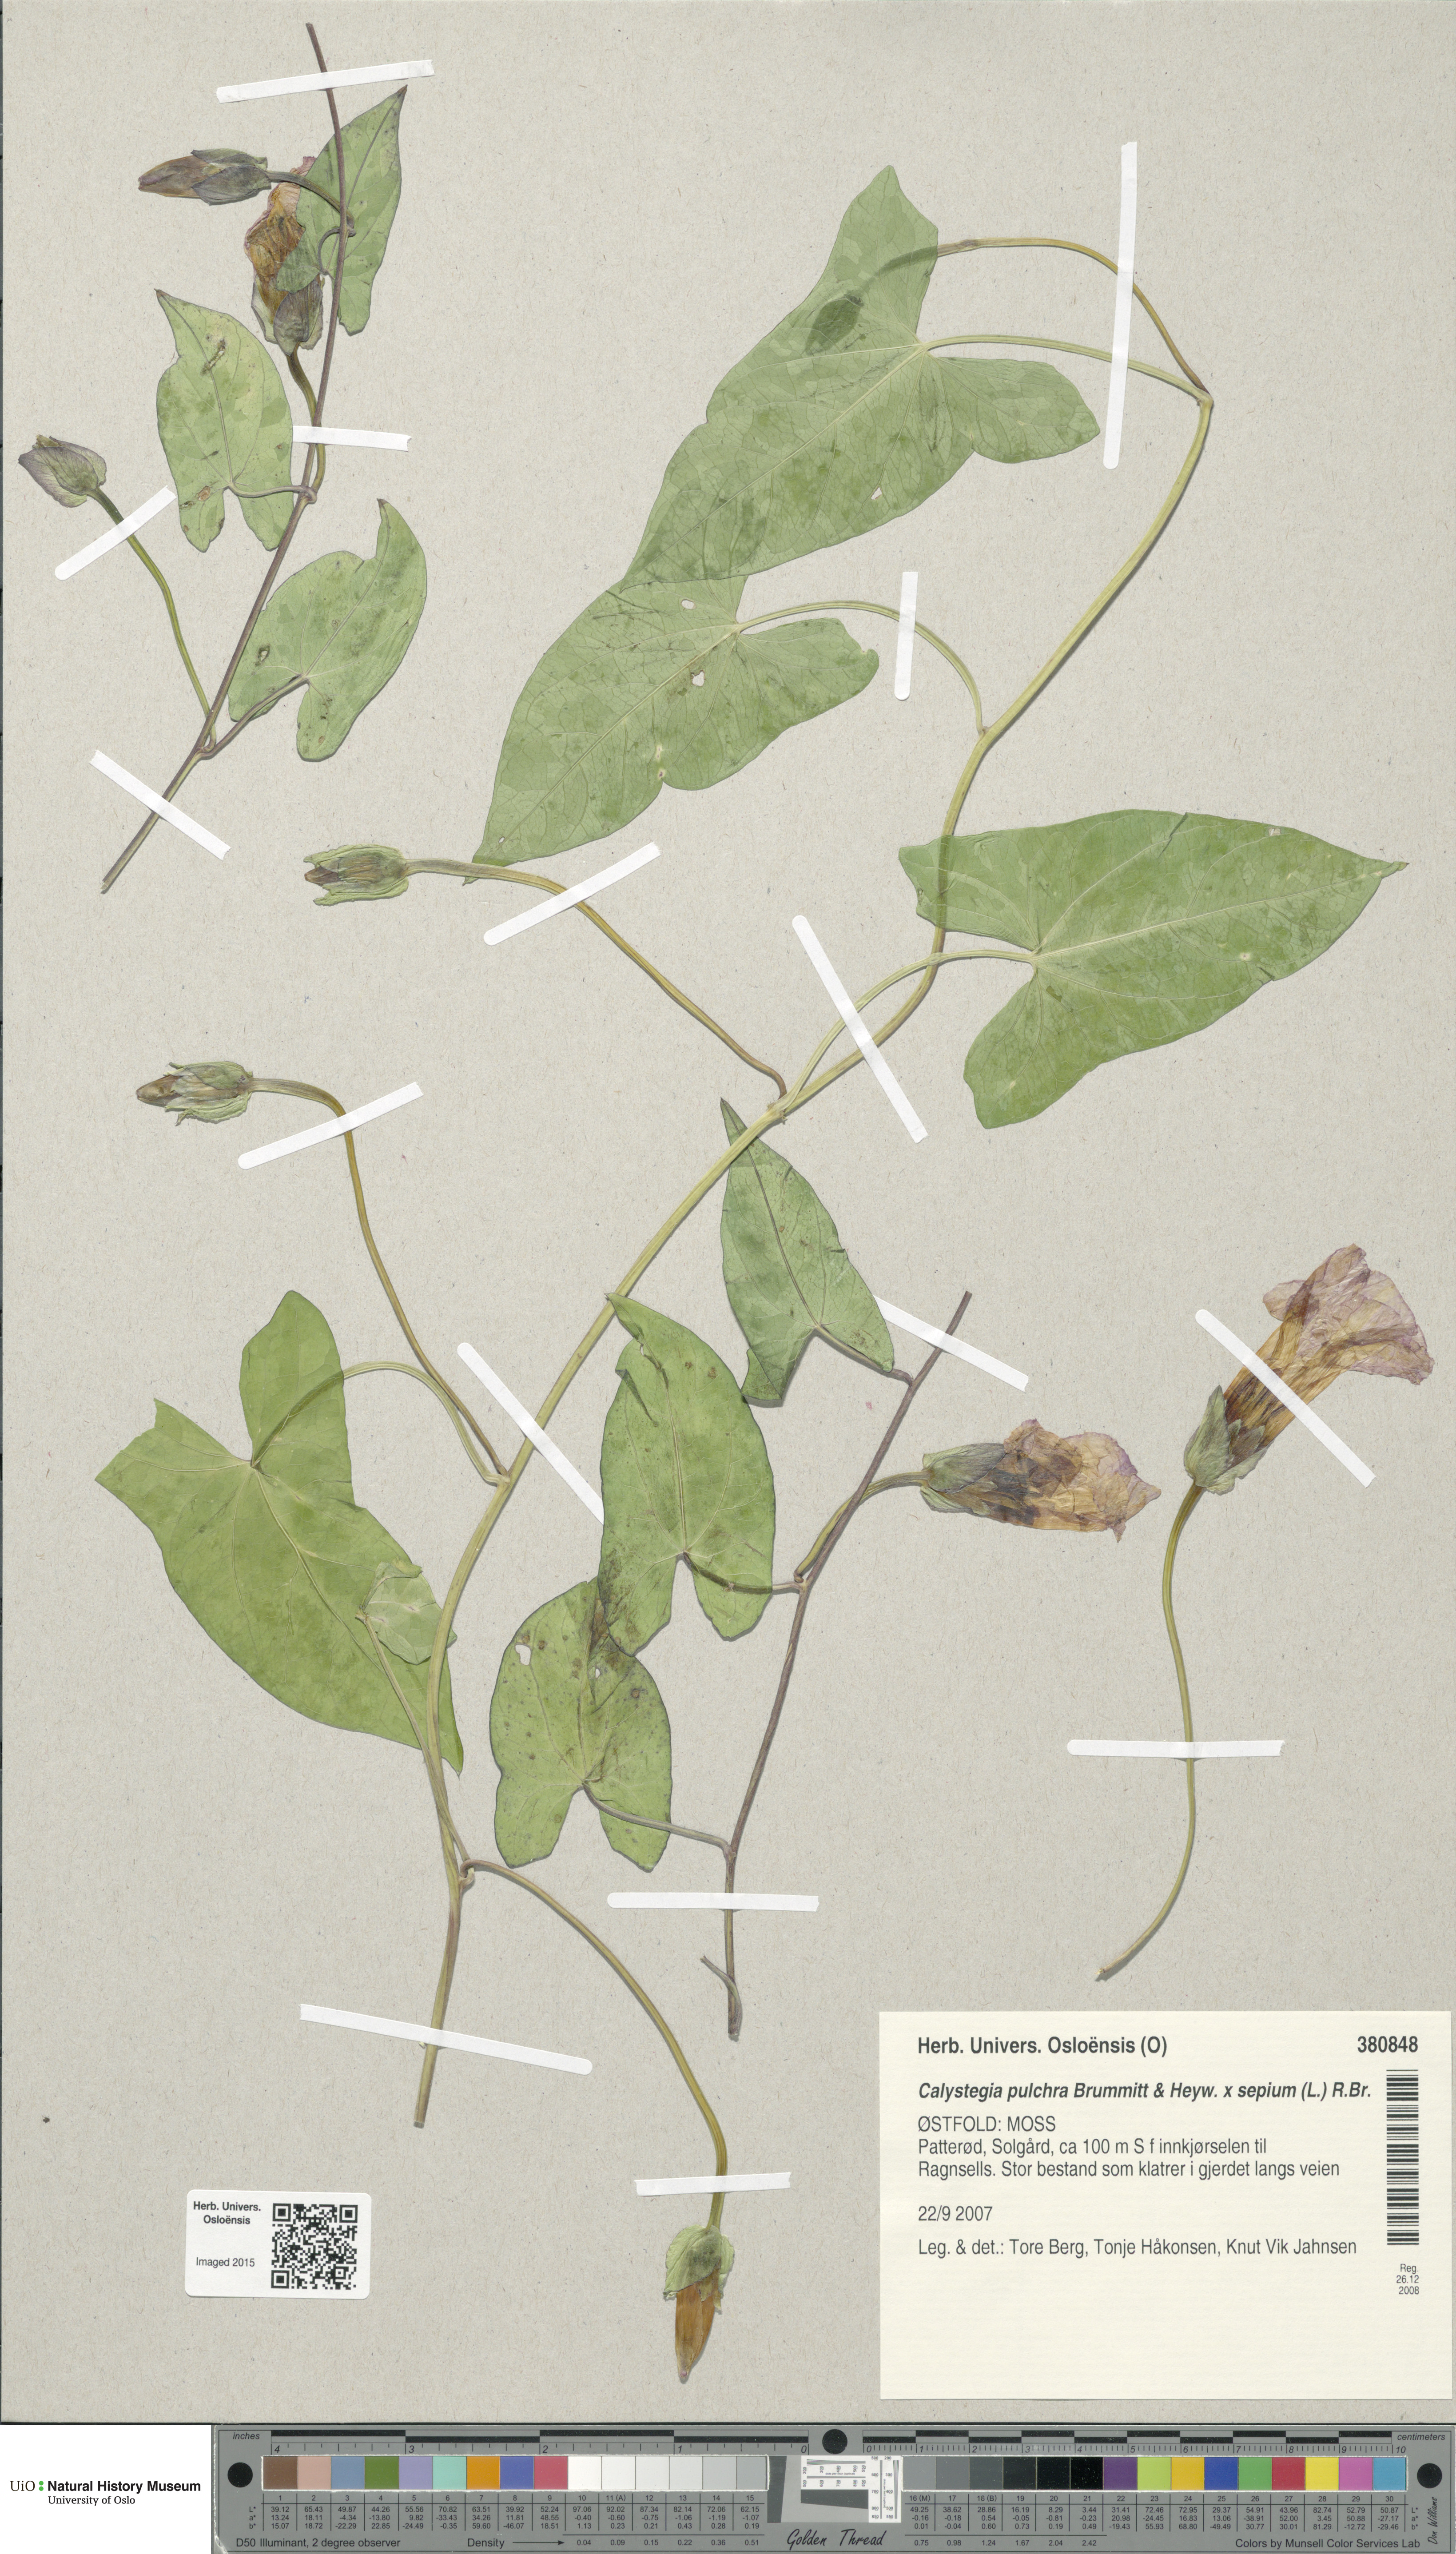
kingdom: Plantae
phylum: Tracheophyta
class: Magnoliopsida
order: Solanales
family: Convolvulaceae
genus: Calystegia
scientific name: Calystegia sepium
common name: Hedge bindweed
